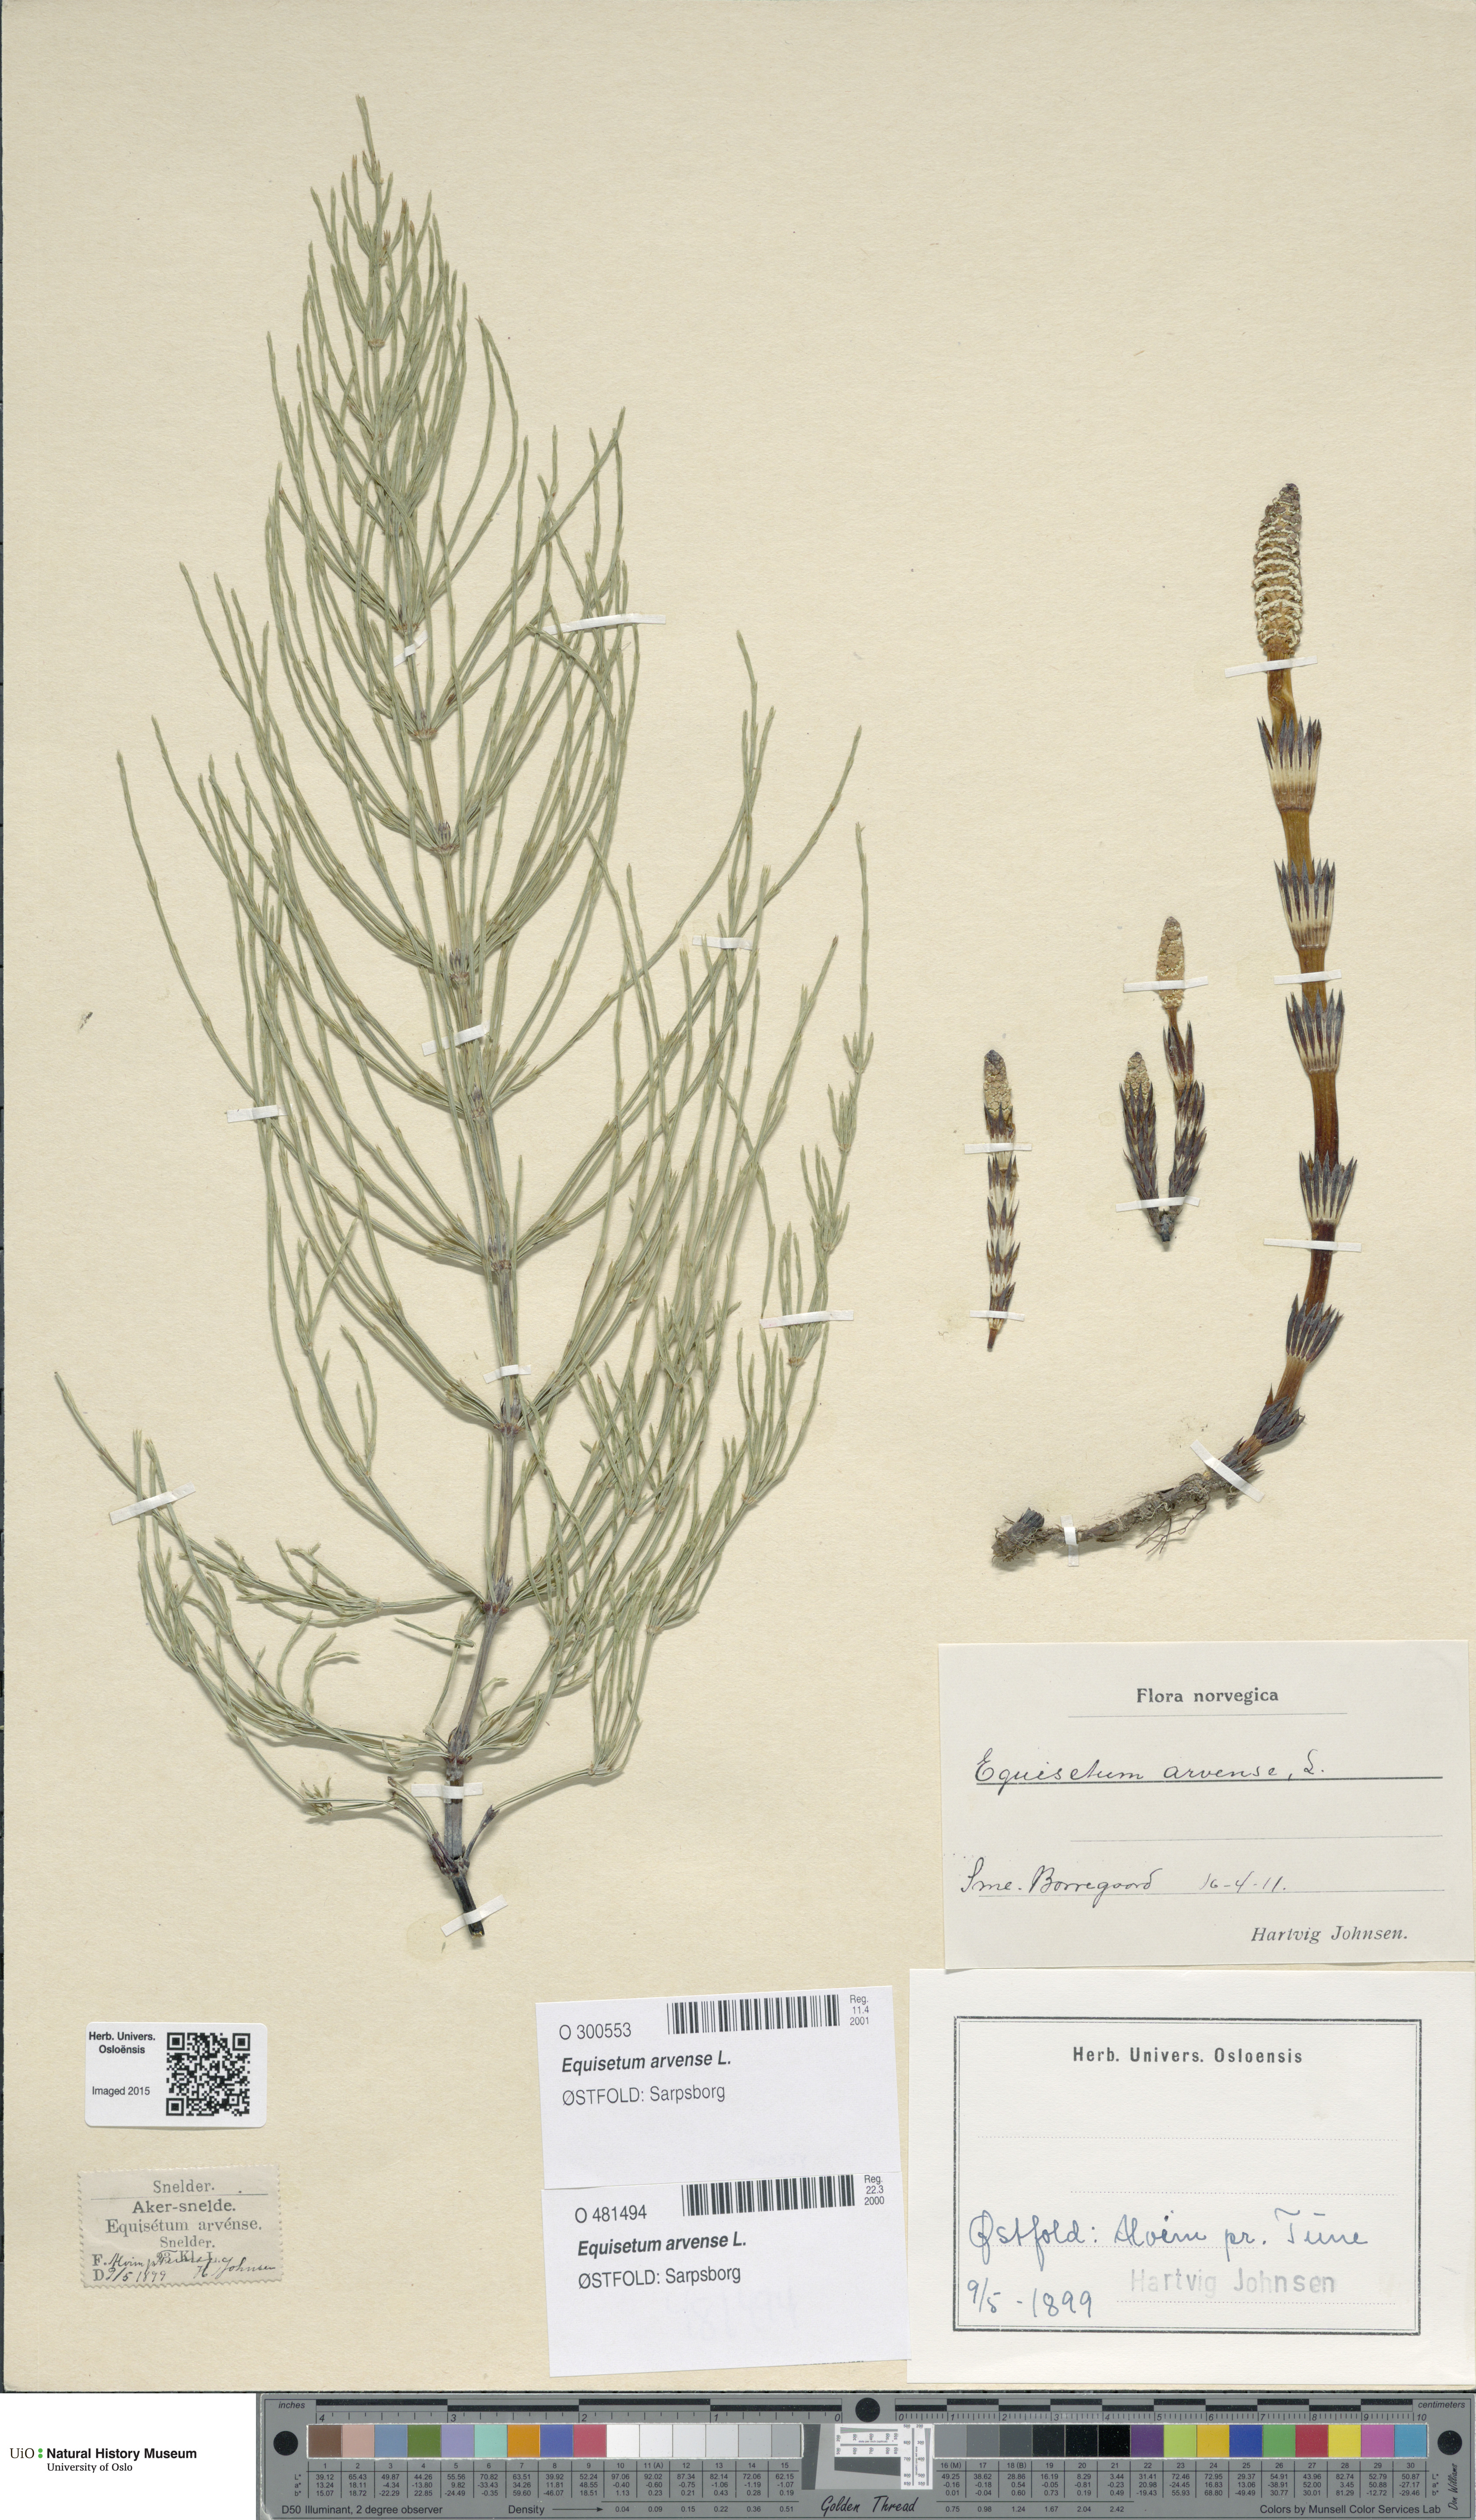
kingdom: Plantae
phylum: Tracheophyta
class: Polypodiopsida
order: Equisetales
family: Equisetaceae
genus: Equisetum
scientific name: Equisetum arvense
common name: Field horsetail
